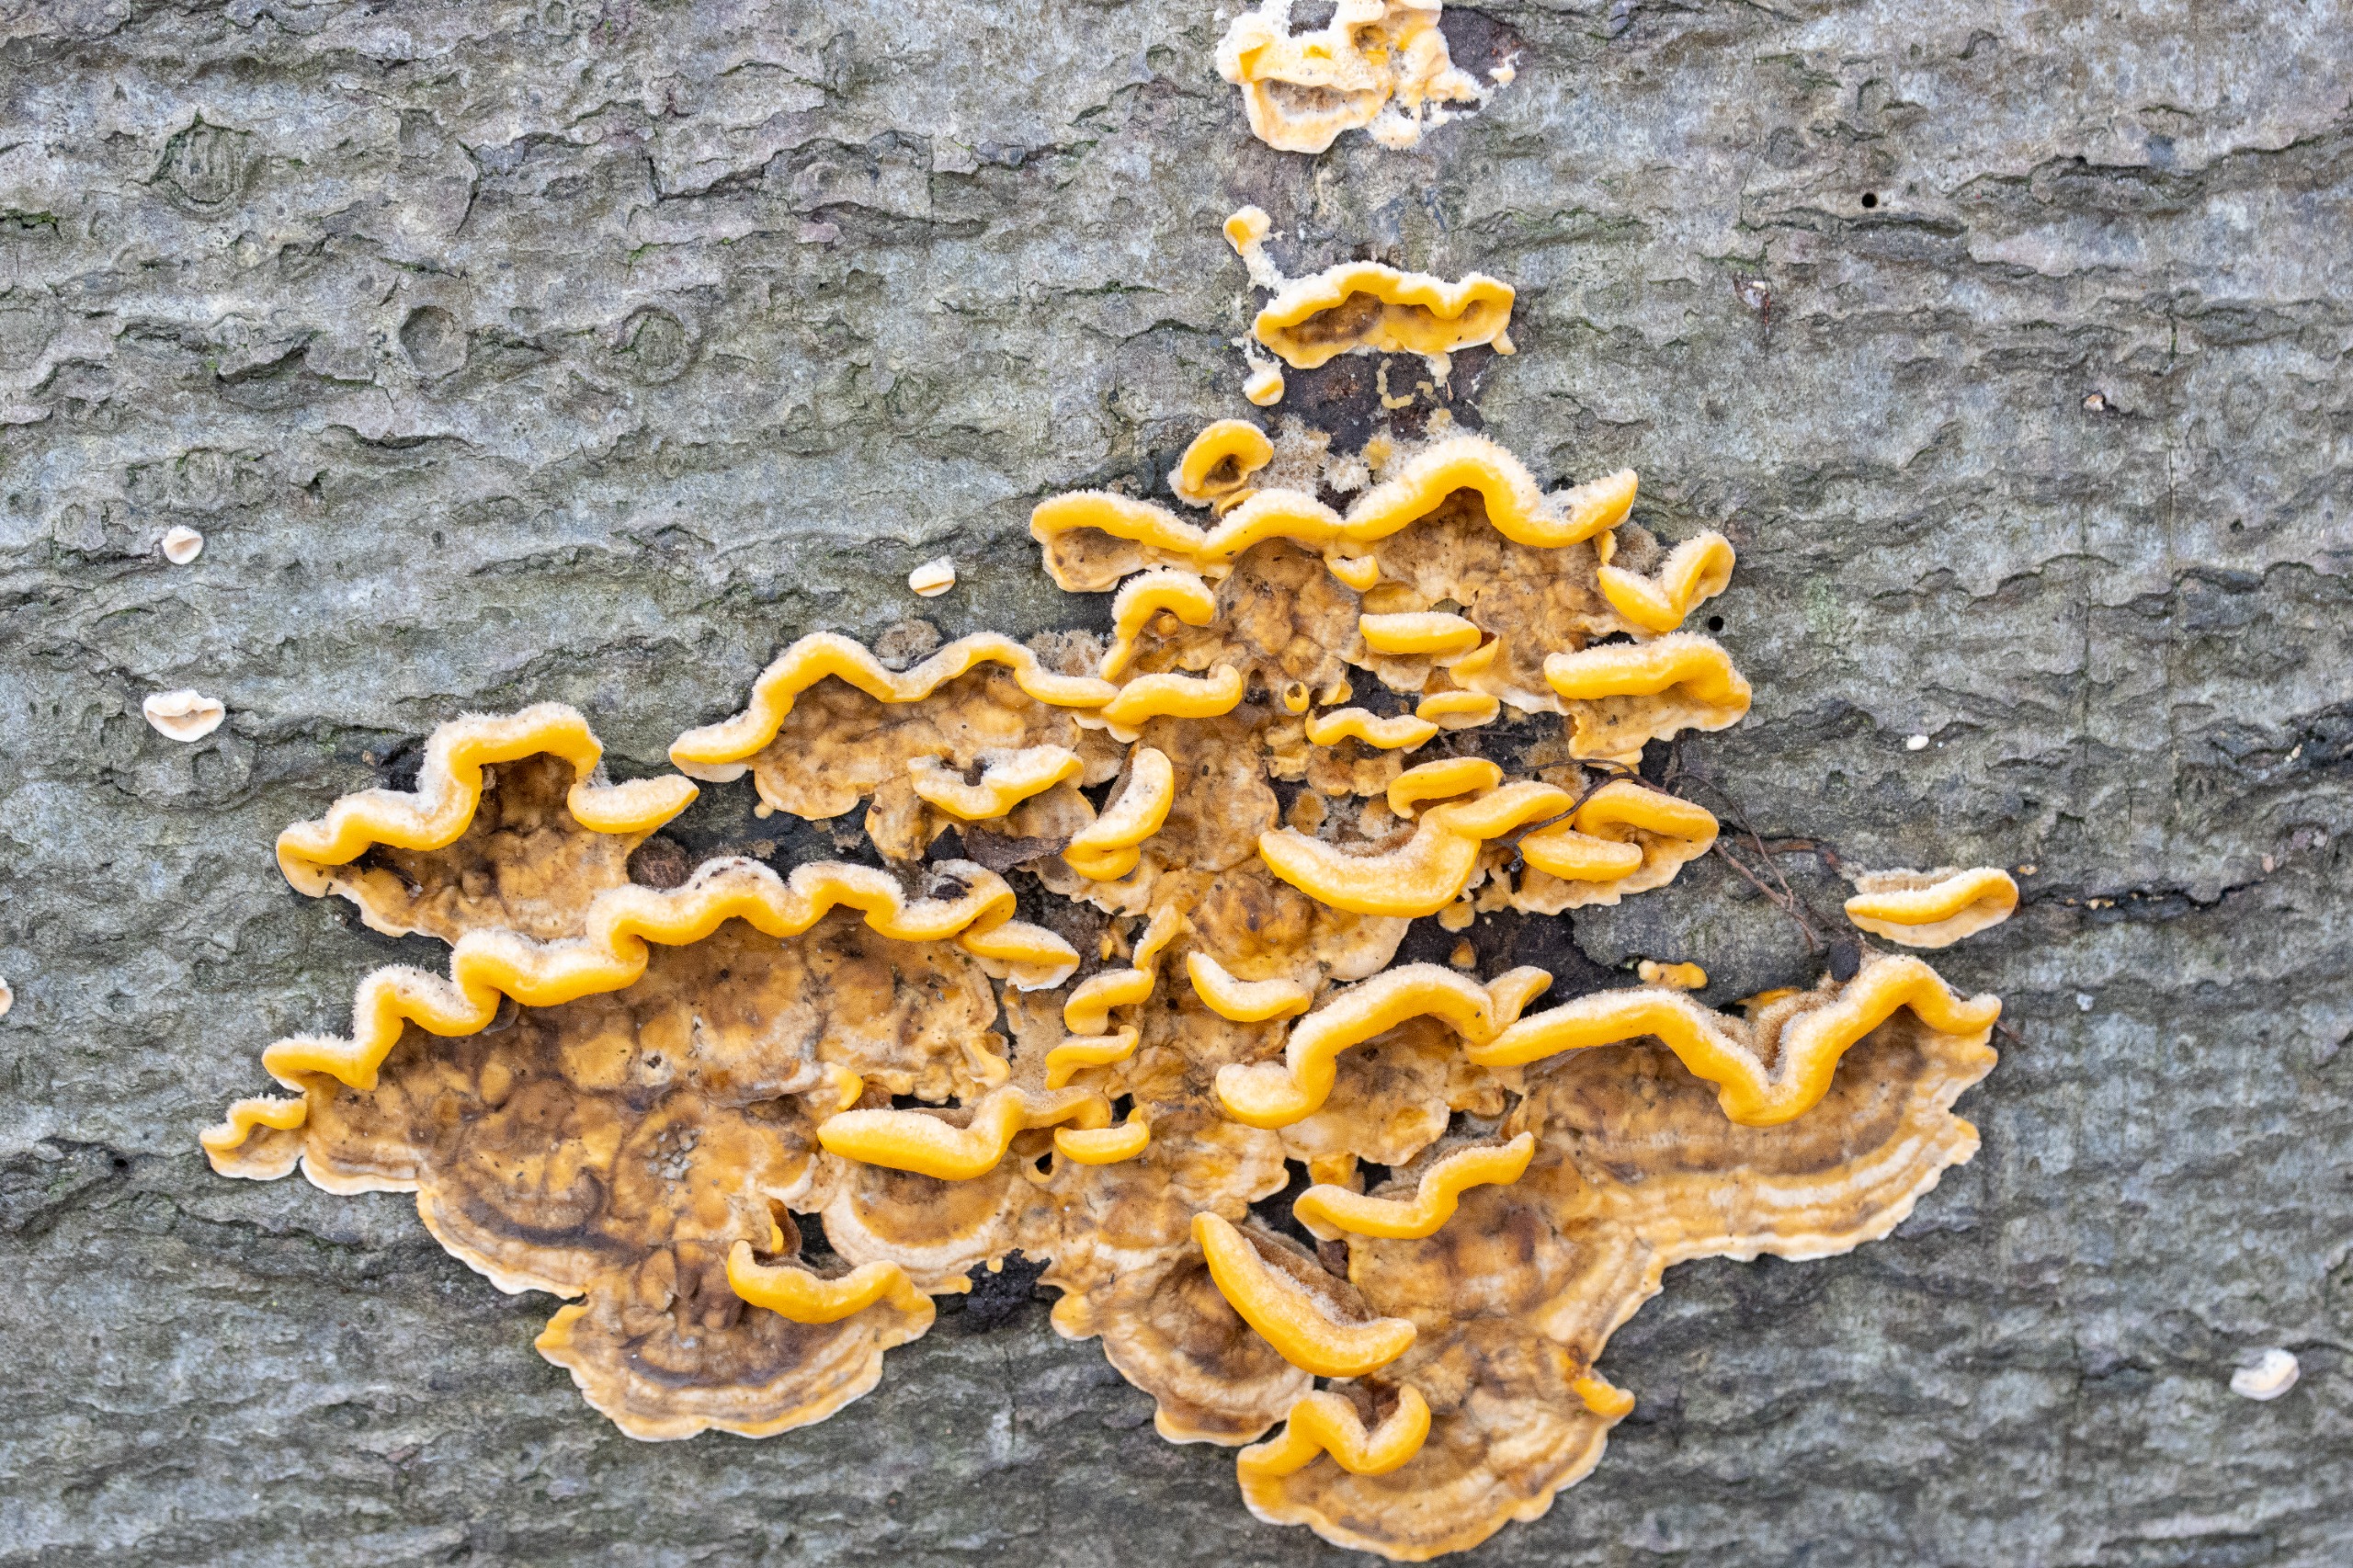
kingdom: Fungi
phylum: Basidiomycota
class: Agaricomycetes
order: Russulales
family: Stereaceae
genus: Stereum
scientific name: Stereum hirsutum
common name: Håret lædersvamp
